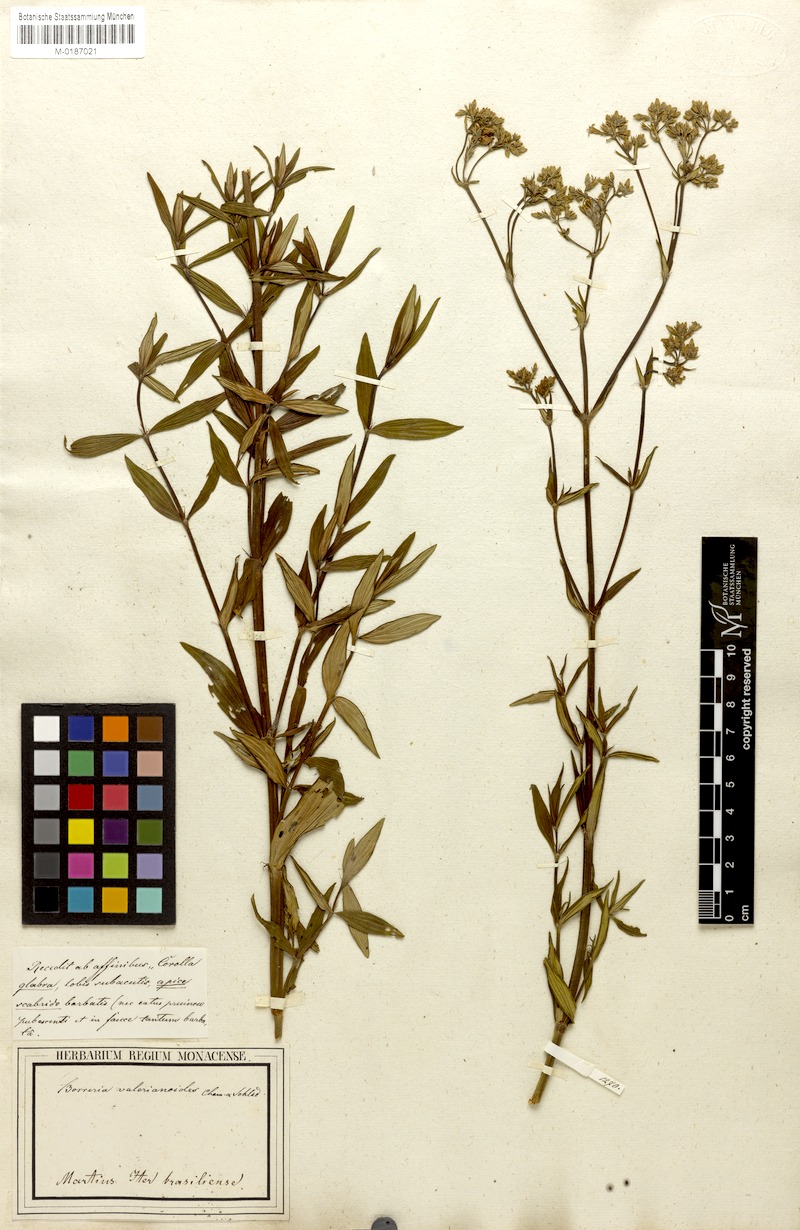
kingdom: Plantae
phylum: Tracheophyta
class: Magnoliopsida
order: Gentianales
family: Rubiaceae
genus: Galianthe
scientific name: Galianthe verbenoides
